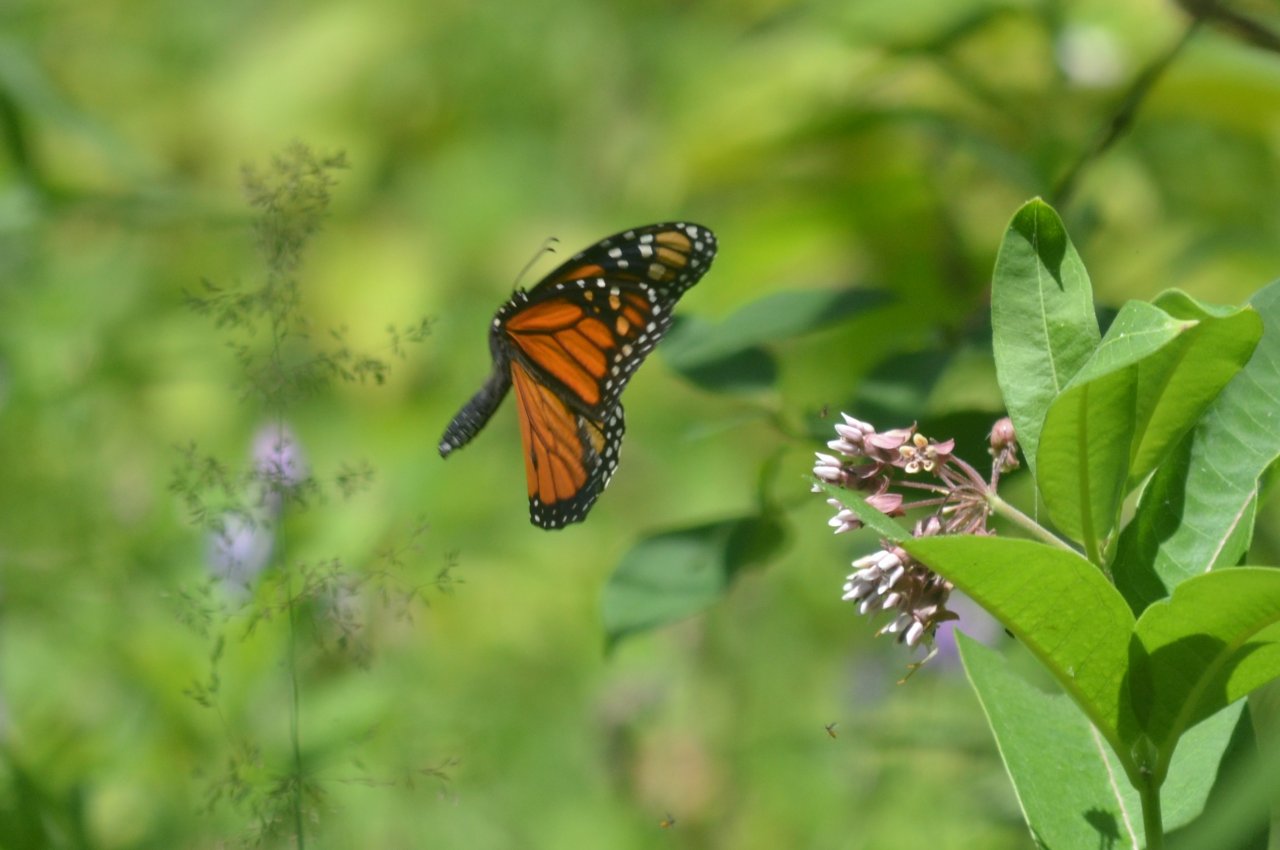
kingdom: Animalia
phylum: Arthropoda
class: Insecta
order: Lepidoptera
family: Nymphalidae
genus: Danaus
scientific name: Danaus plexippus
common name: Monarch
